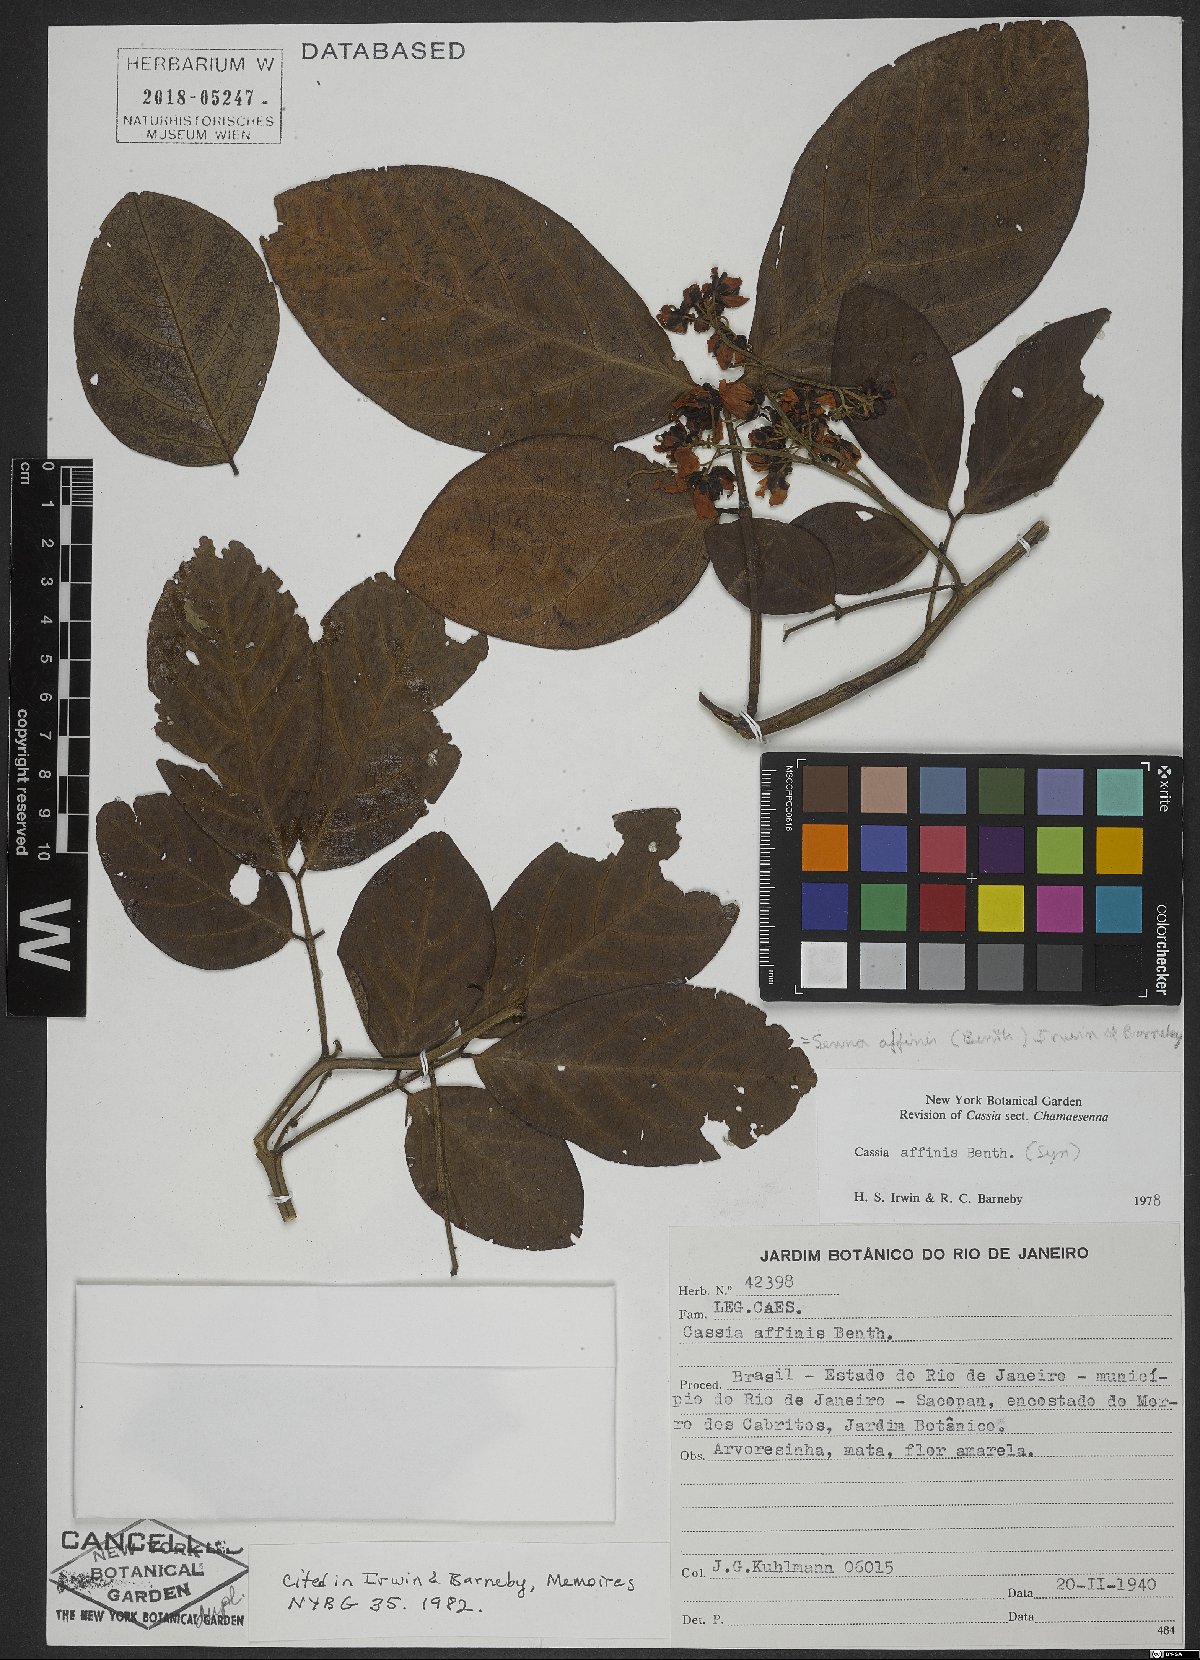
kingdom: Plantae
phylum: Tracheophyta
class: Magnoliopsida
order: Fabales
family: Fabaceae
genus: Senna
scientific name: Senna affinis
